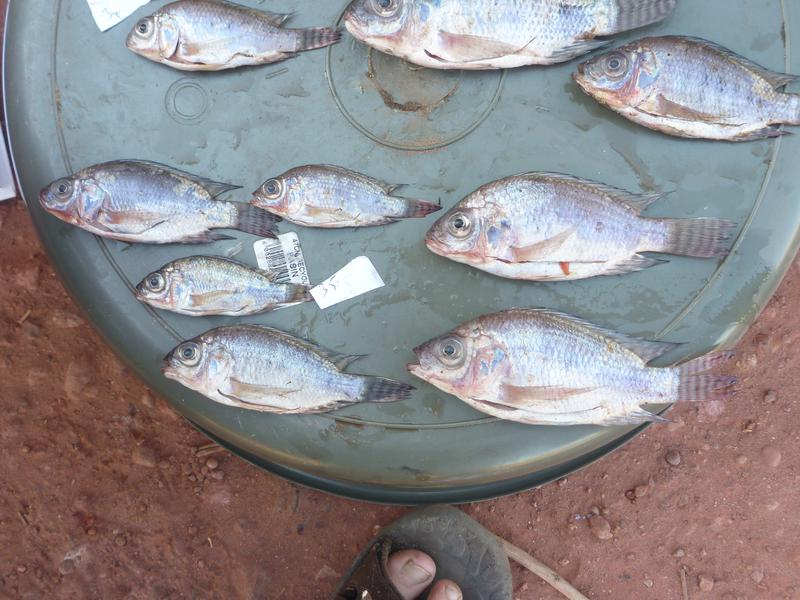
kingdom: Animalia
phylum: Chordata
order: Perciformes
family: Cichlidae
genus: Oreochromis
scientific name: Oreochromis niloticus
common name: Nile tilapia
